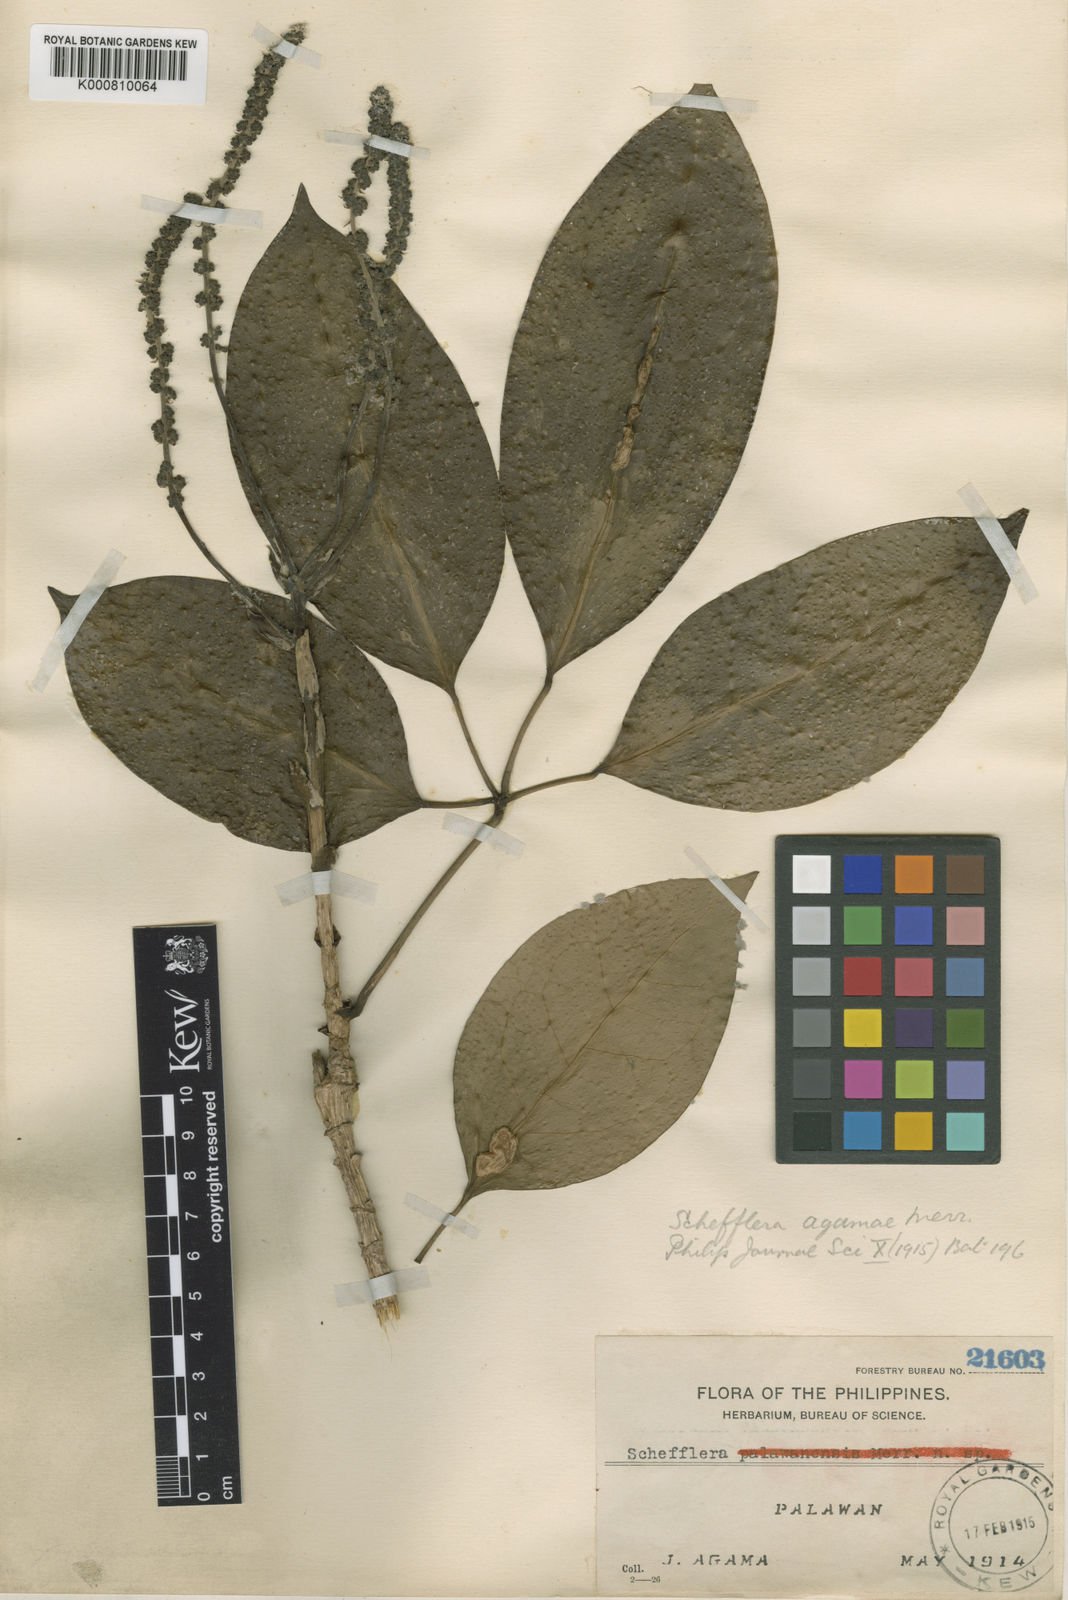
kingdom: Plantae
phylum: Tracheophyta
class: Magnoliopsida
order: Apiales
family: Araliaceae
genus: Heptapleurum
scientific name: Heptapleurum agamae
